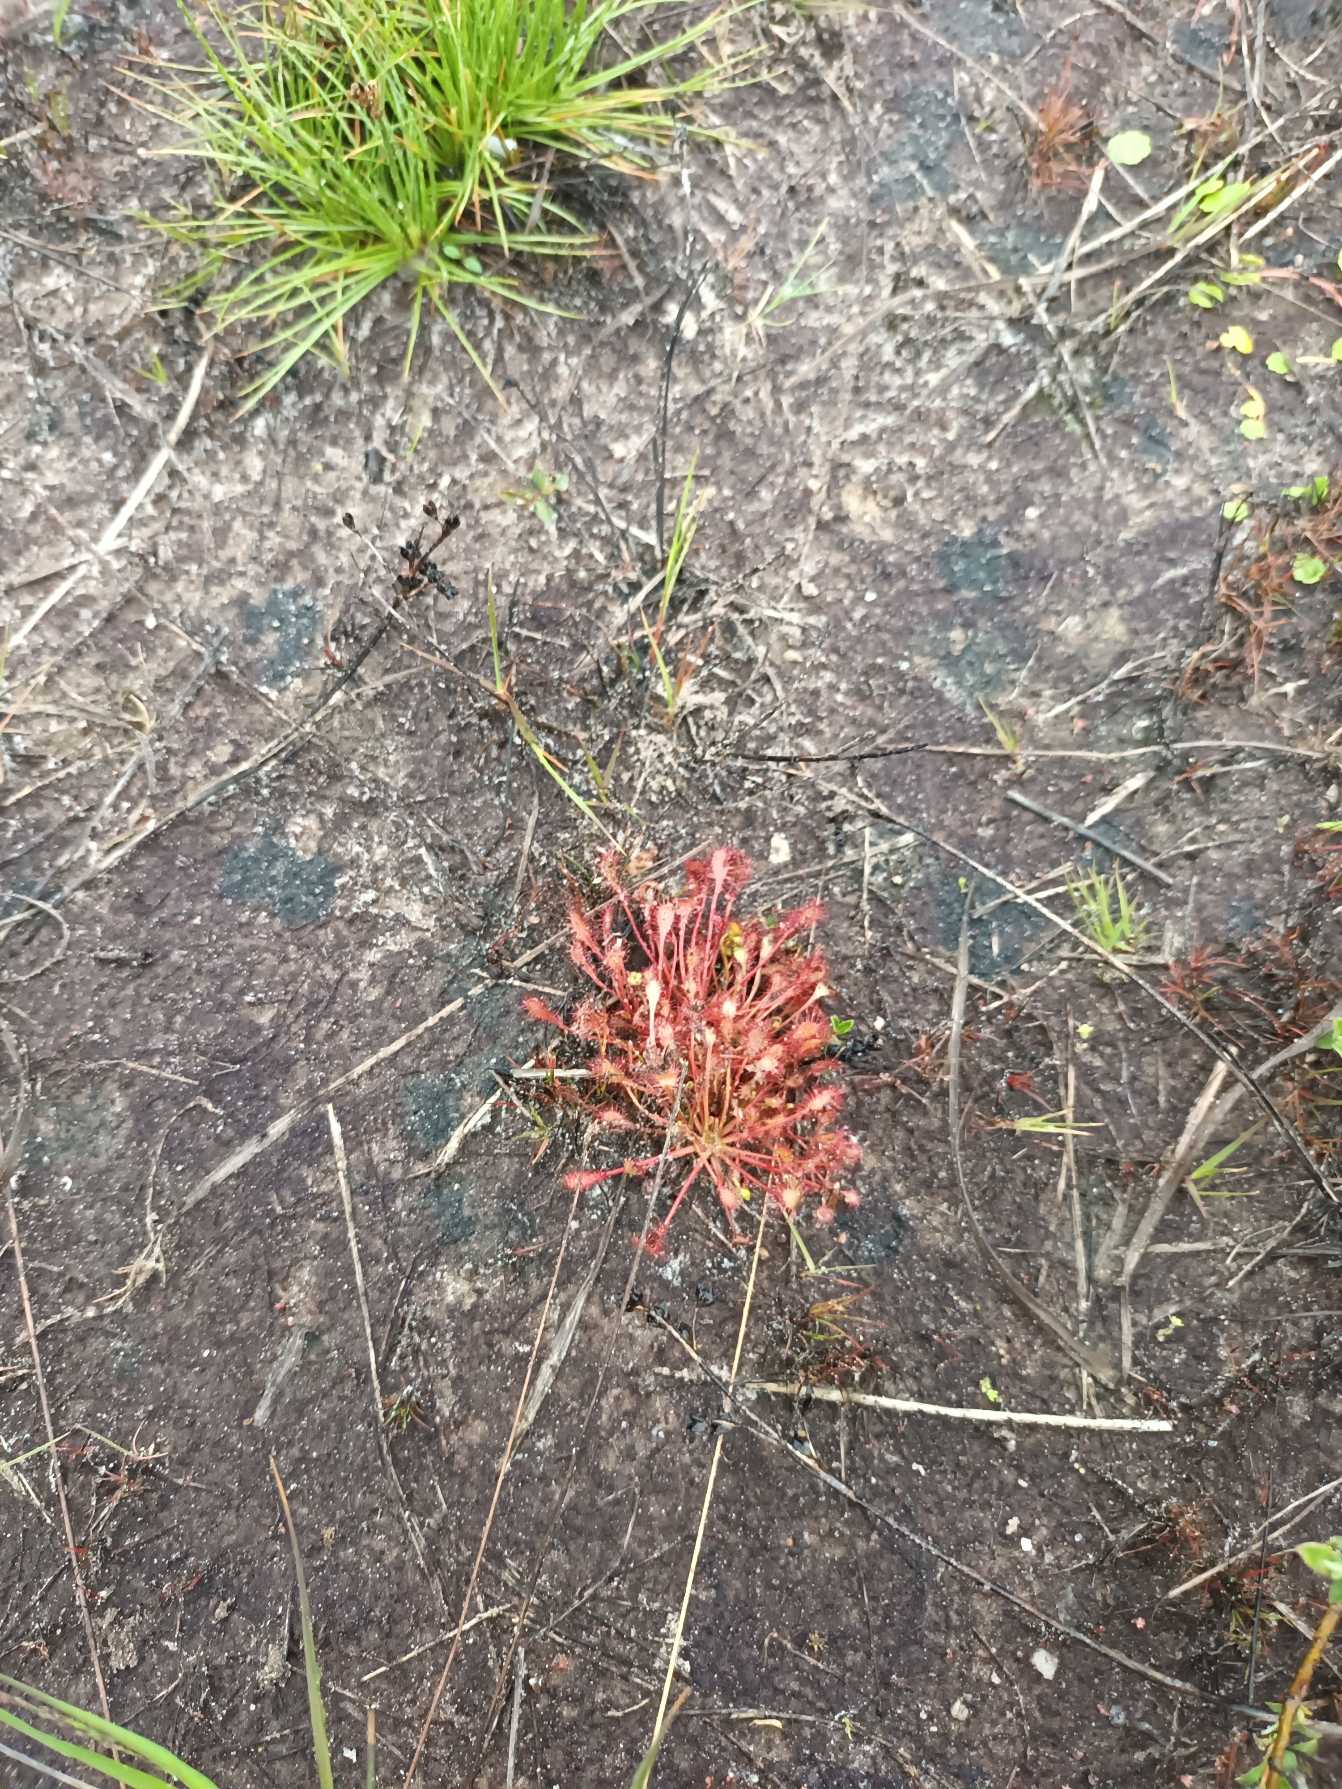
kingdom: Plantae
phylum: Tracheophyta
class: Magnoliopsida
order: Caryophyllales
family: Droseraceae
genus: Drosera
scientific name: Drosera intermedia
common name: Liden soldug
